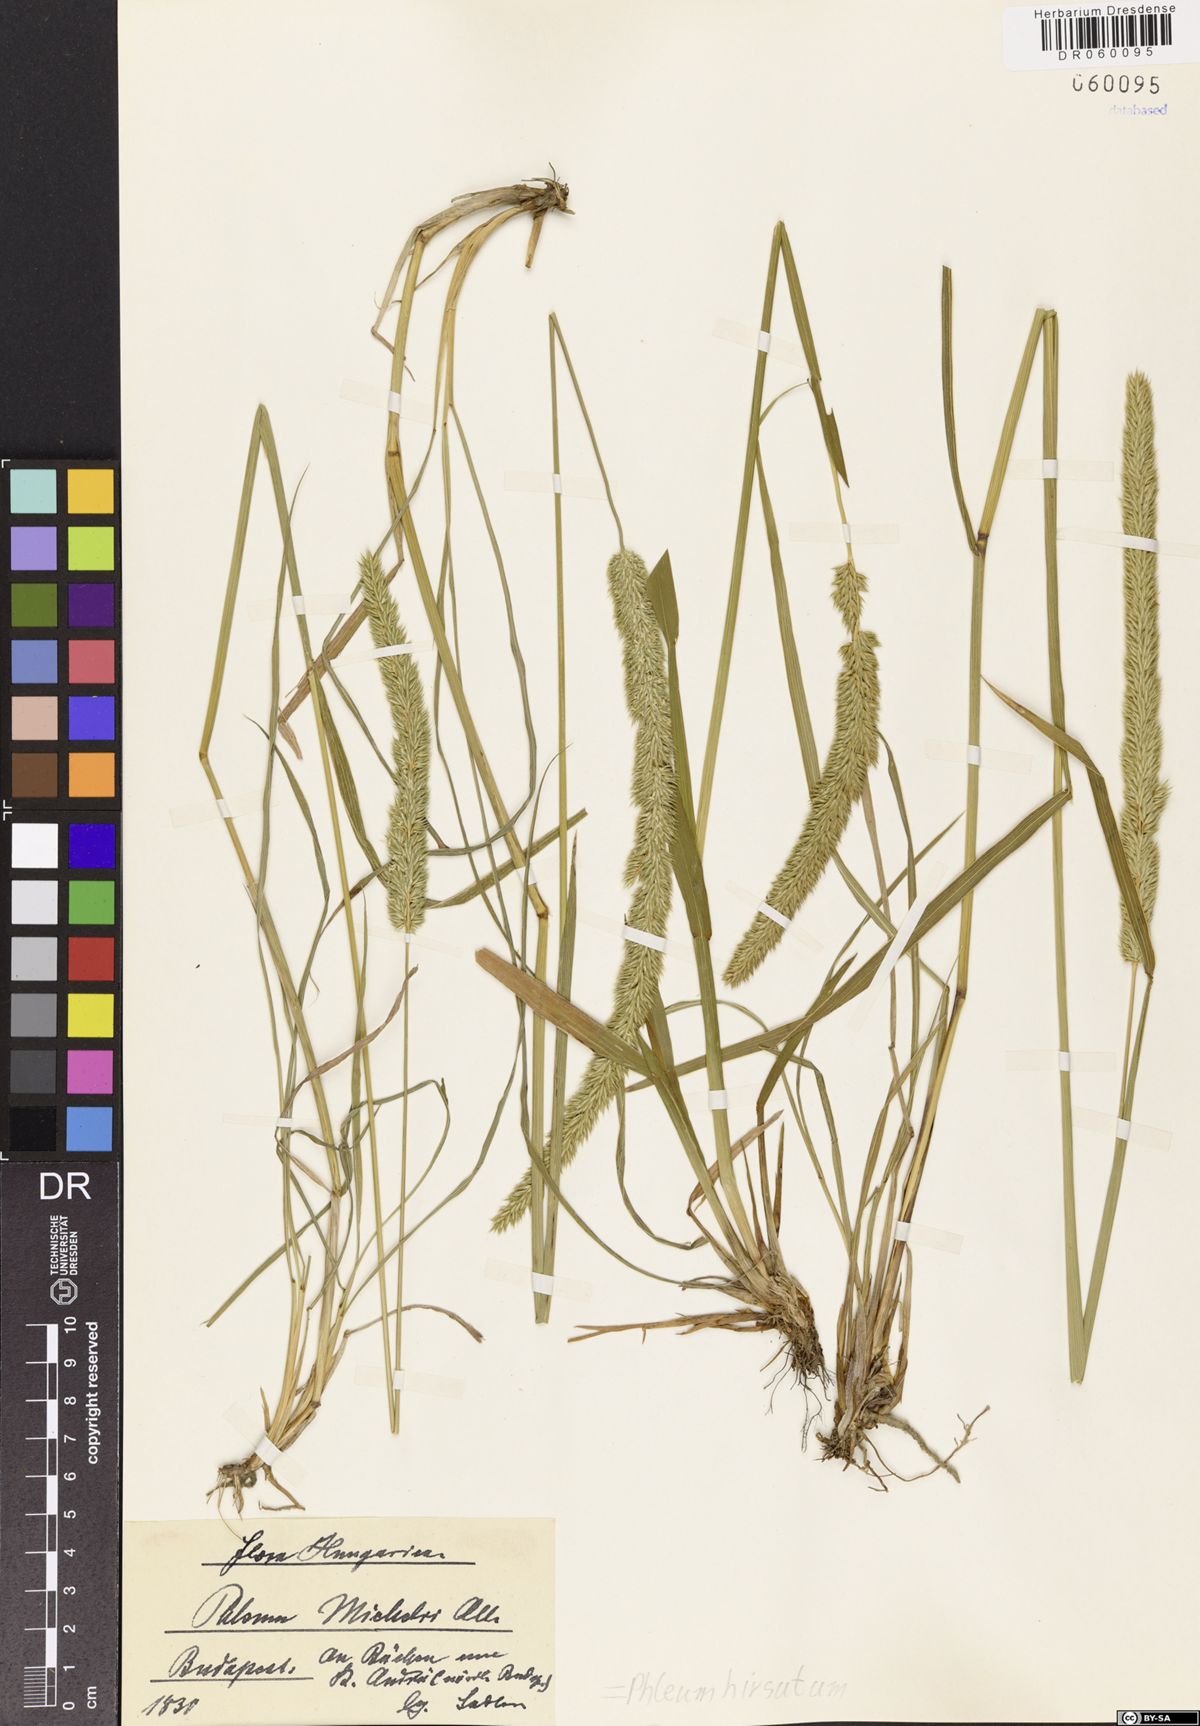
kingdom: Plantae
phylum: Tracheophyta
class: Liliopsida
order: Poales
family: Poaceae
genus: Phleum
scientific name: Phleum hirsutum
